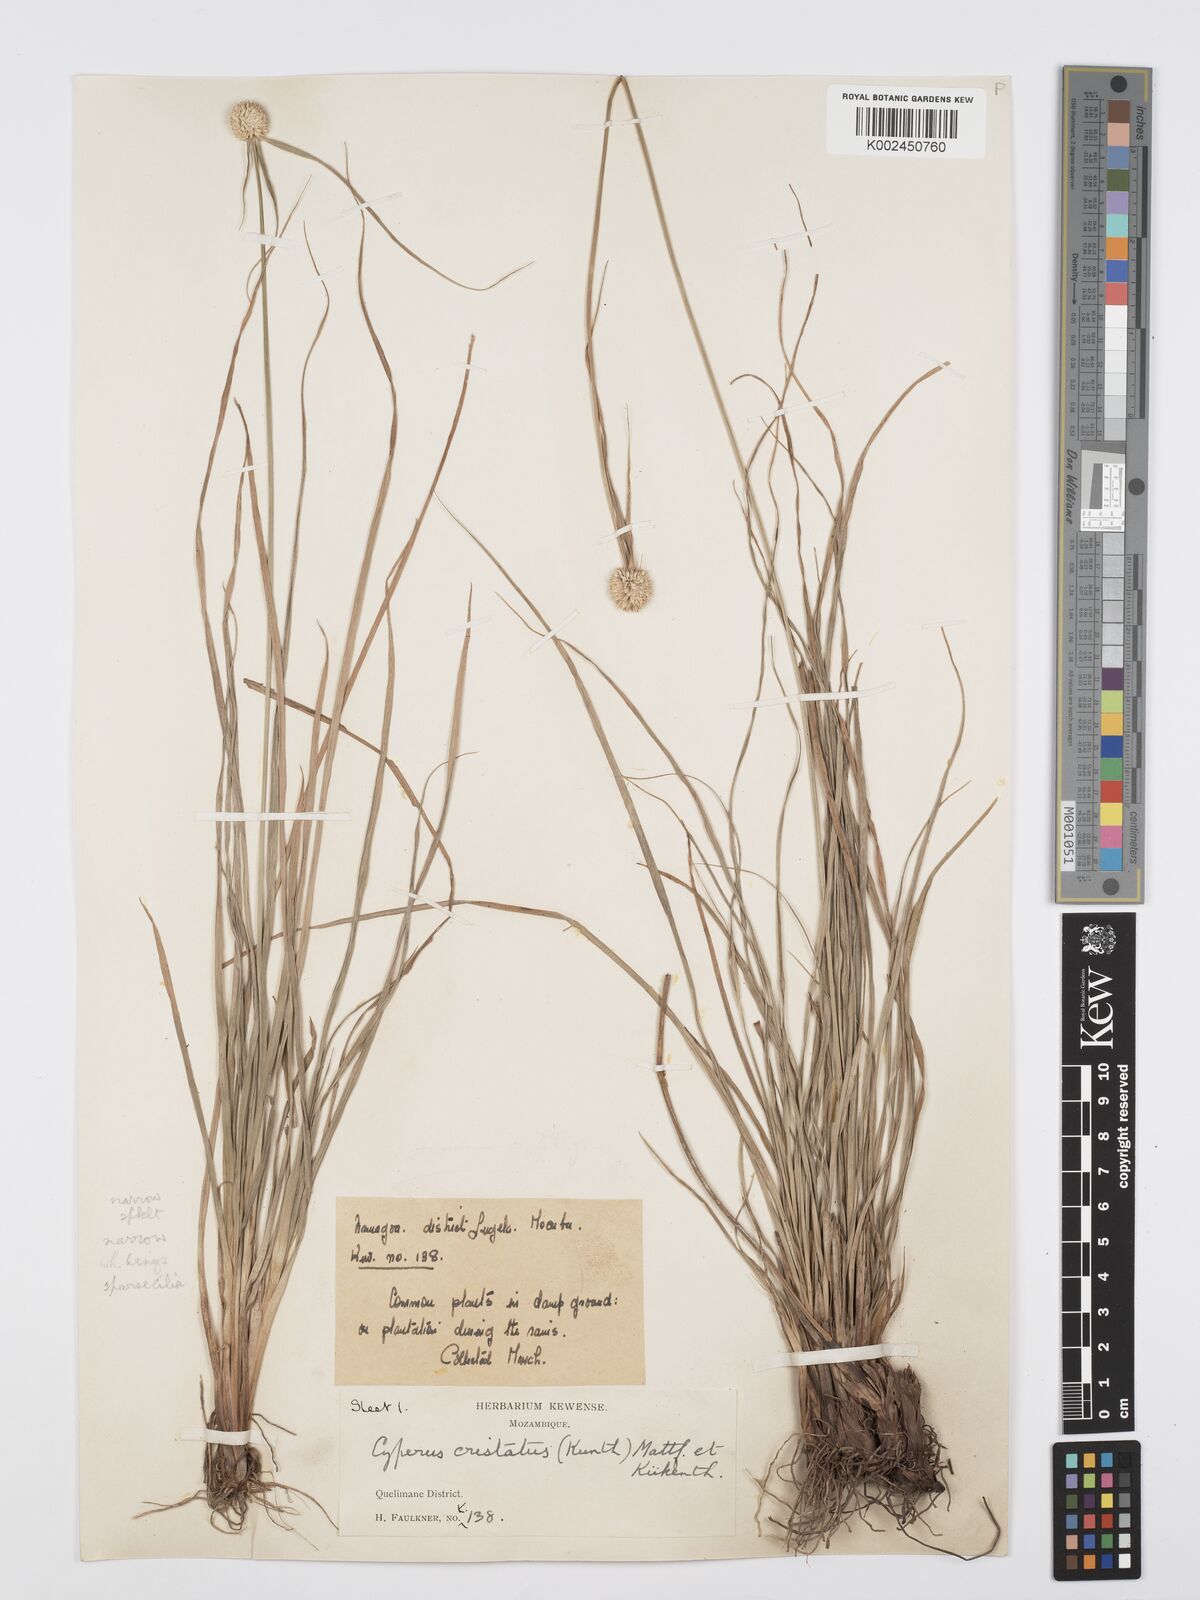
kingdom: Plantae
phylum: Tracheophyta
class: Liliopsida
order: Poales
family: Cyperaceae
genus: Cyperus
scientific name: Cyperus rukwanus
